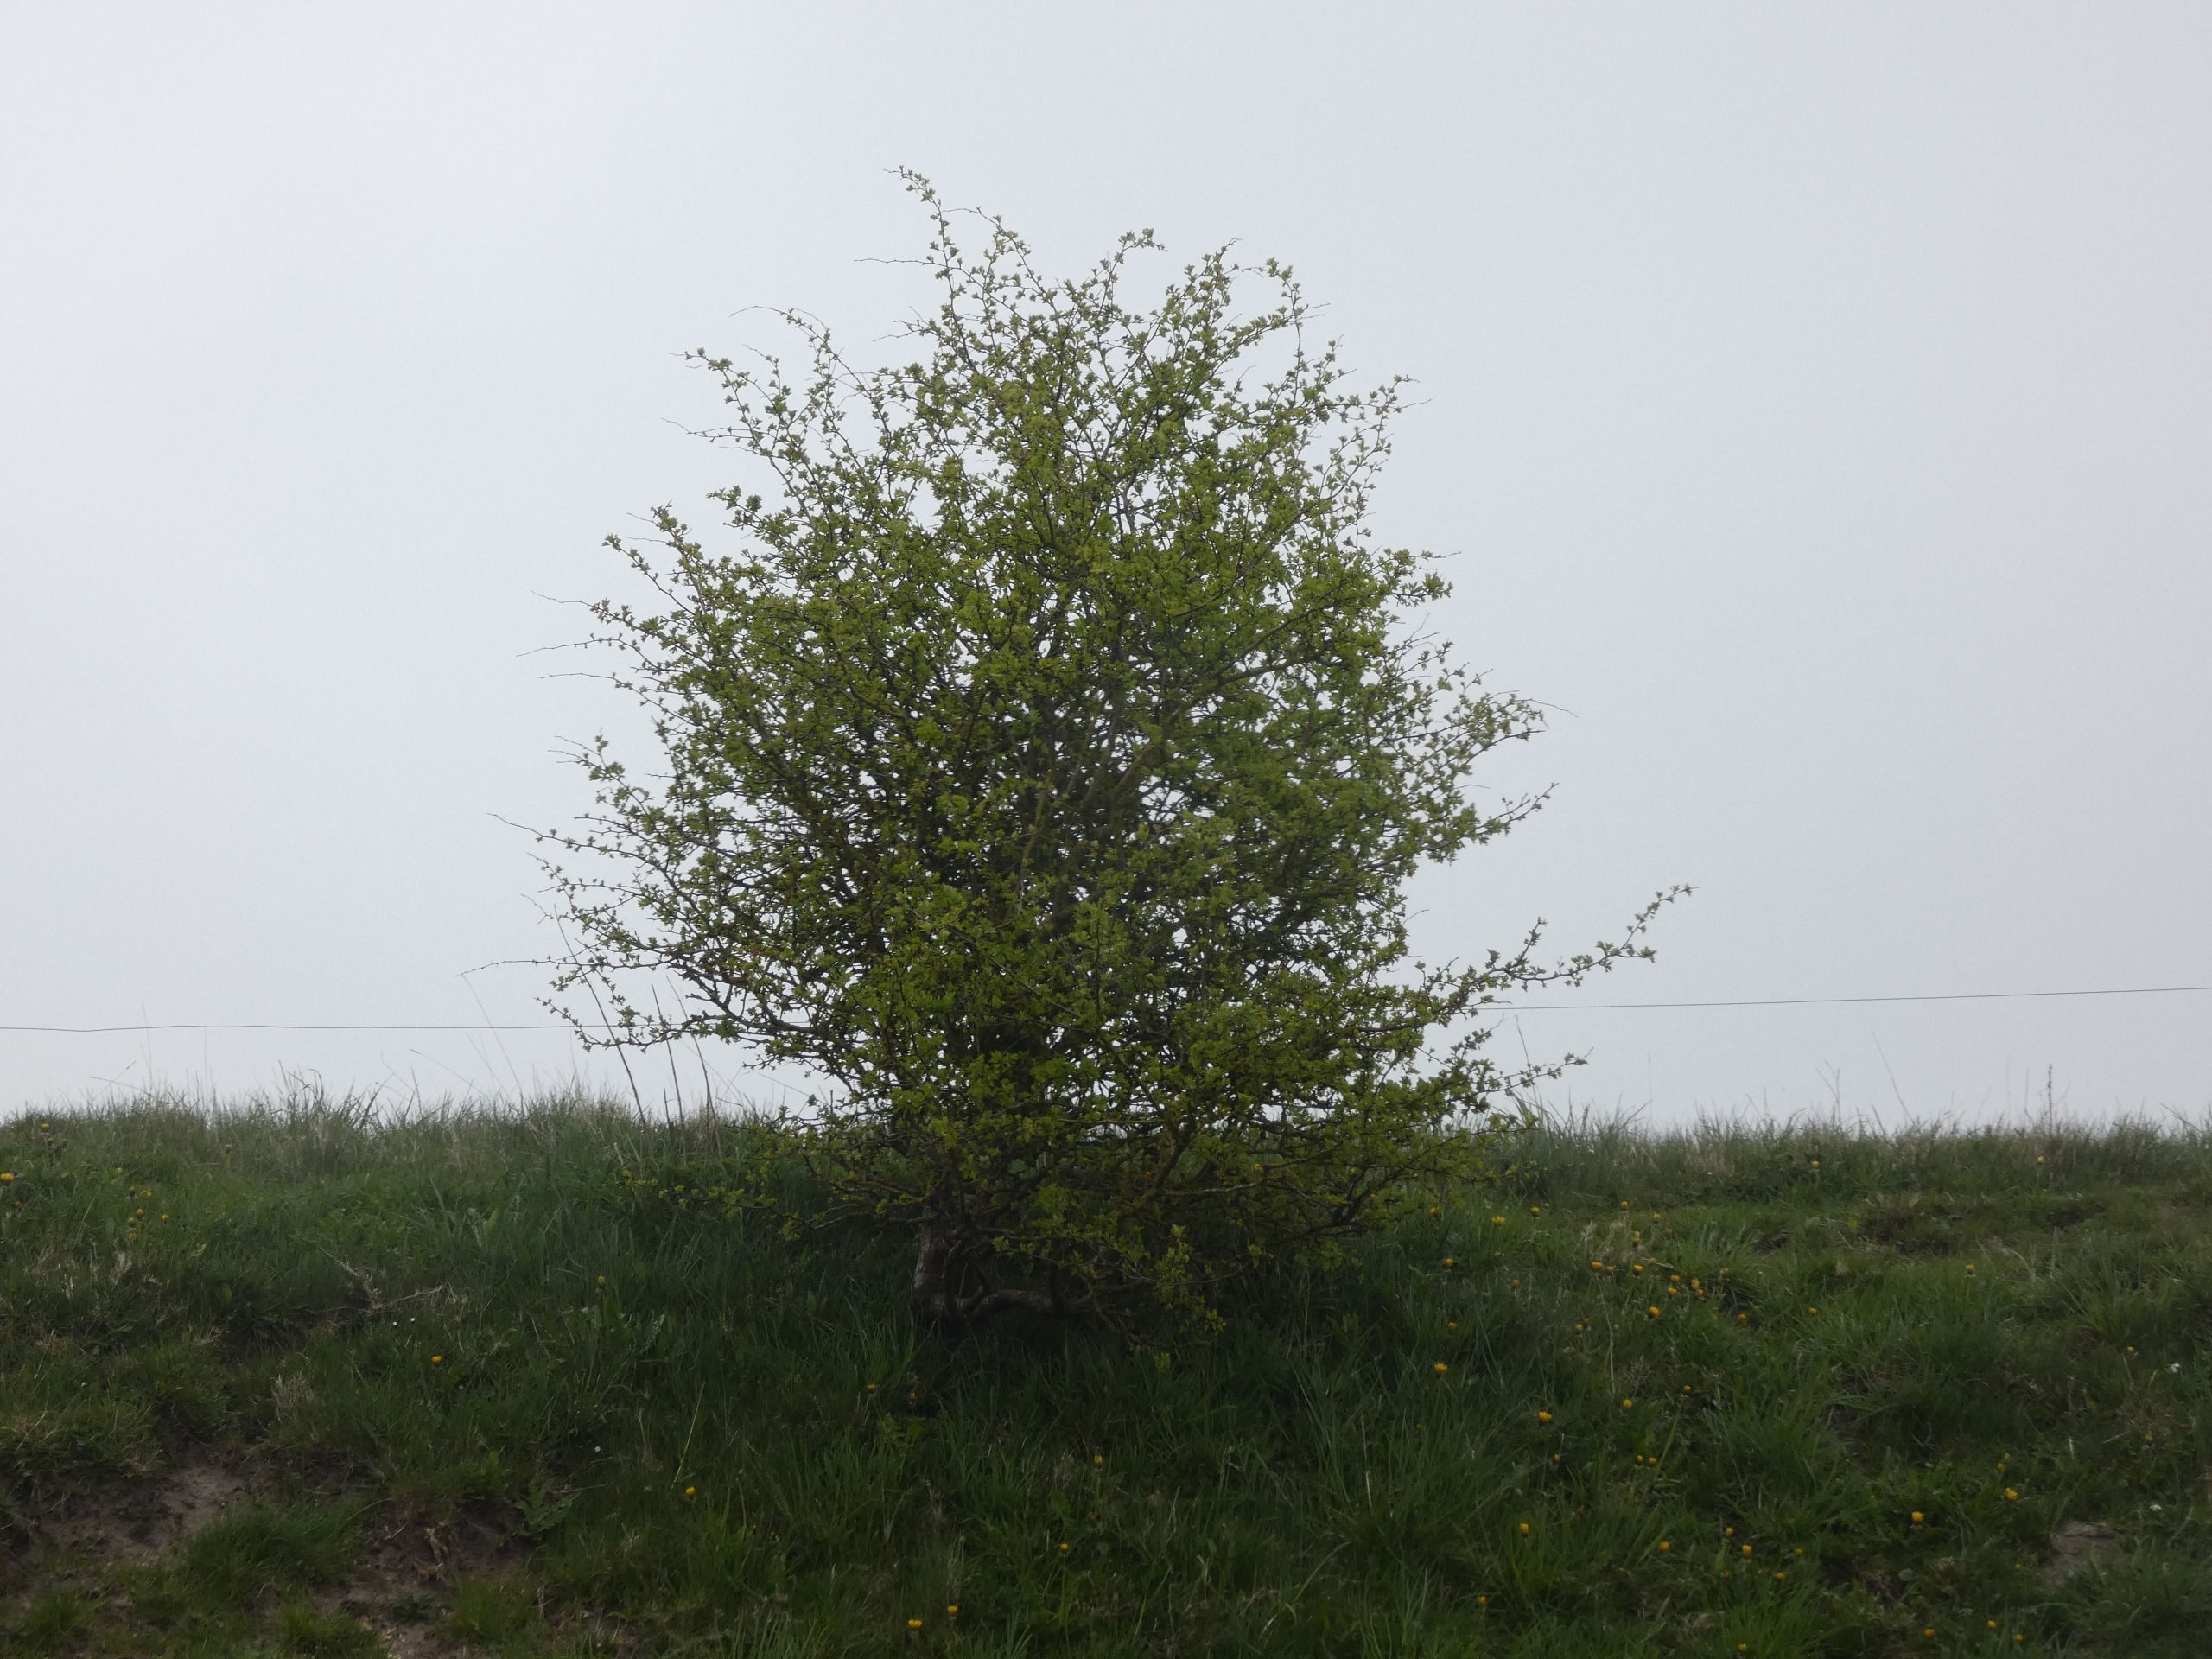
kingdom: Plantae
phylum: Tracheophyta
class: Magnoliopsida
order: Rosales
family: Rosaceae
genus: Crataegus
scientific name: Crataegus monogyna
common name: Engriflet hvidtjørn
